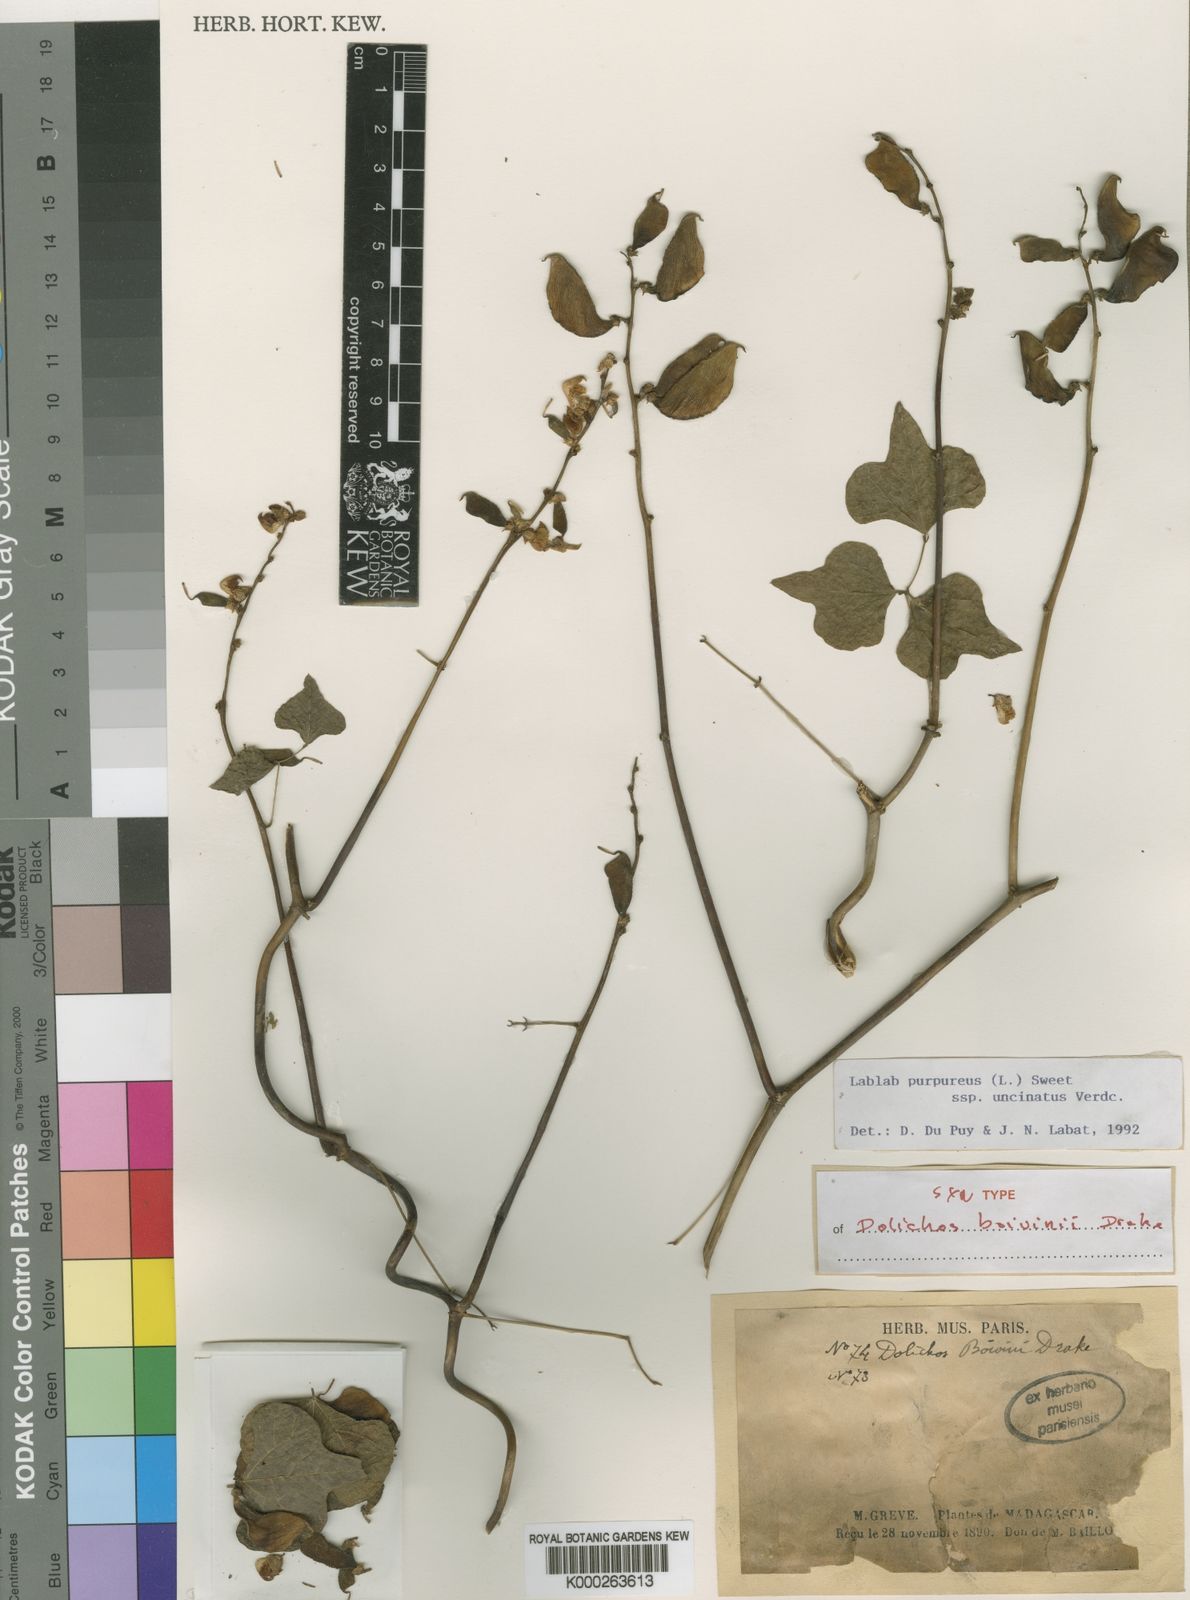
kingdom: Plantae
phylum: Tracheophyta
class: Magnoliopsida
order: Fabales
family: Fabaceae
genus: Lablab
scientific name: Lablab purpureus
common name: Lablab-bean
